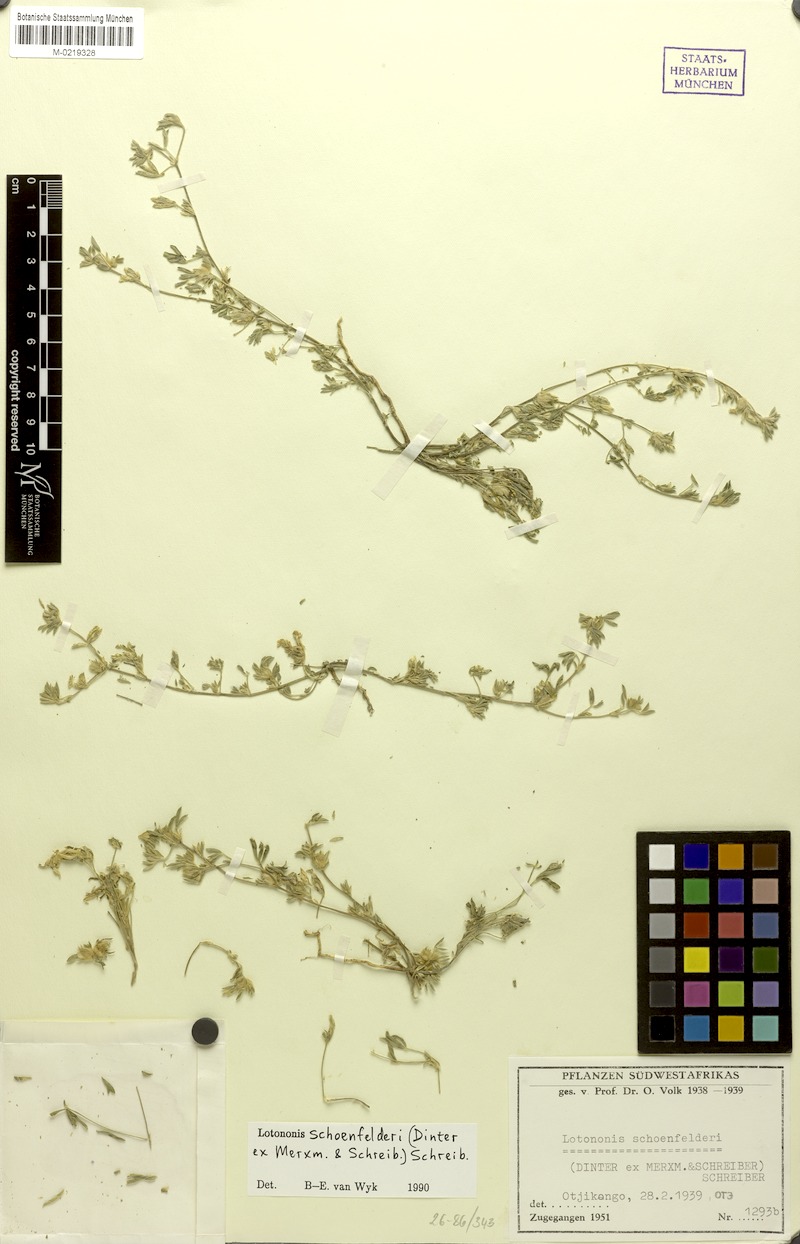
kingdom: Plantae
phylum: Tracheophyta
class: Magnoliopsida
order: Fabales
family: Fabaceae
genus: Leobordea
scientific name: Leobordea schoenfelderi
